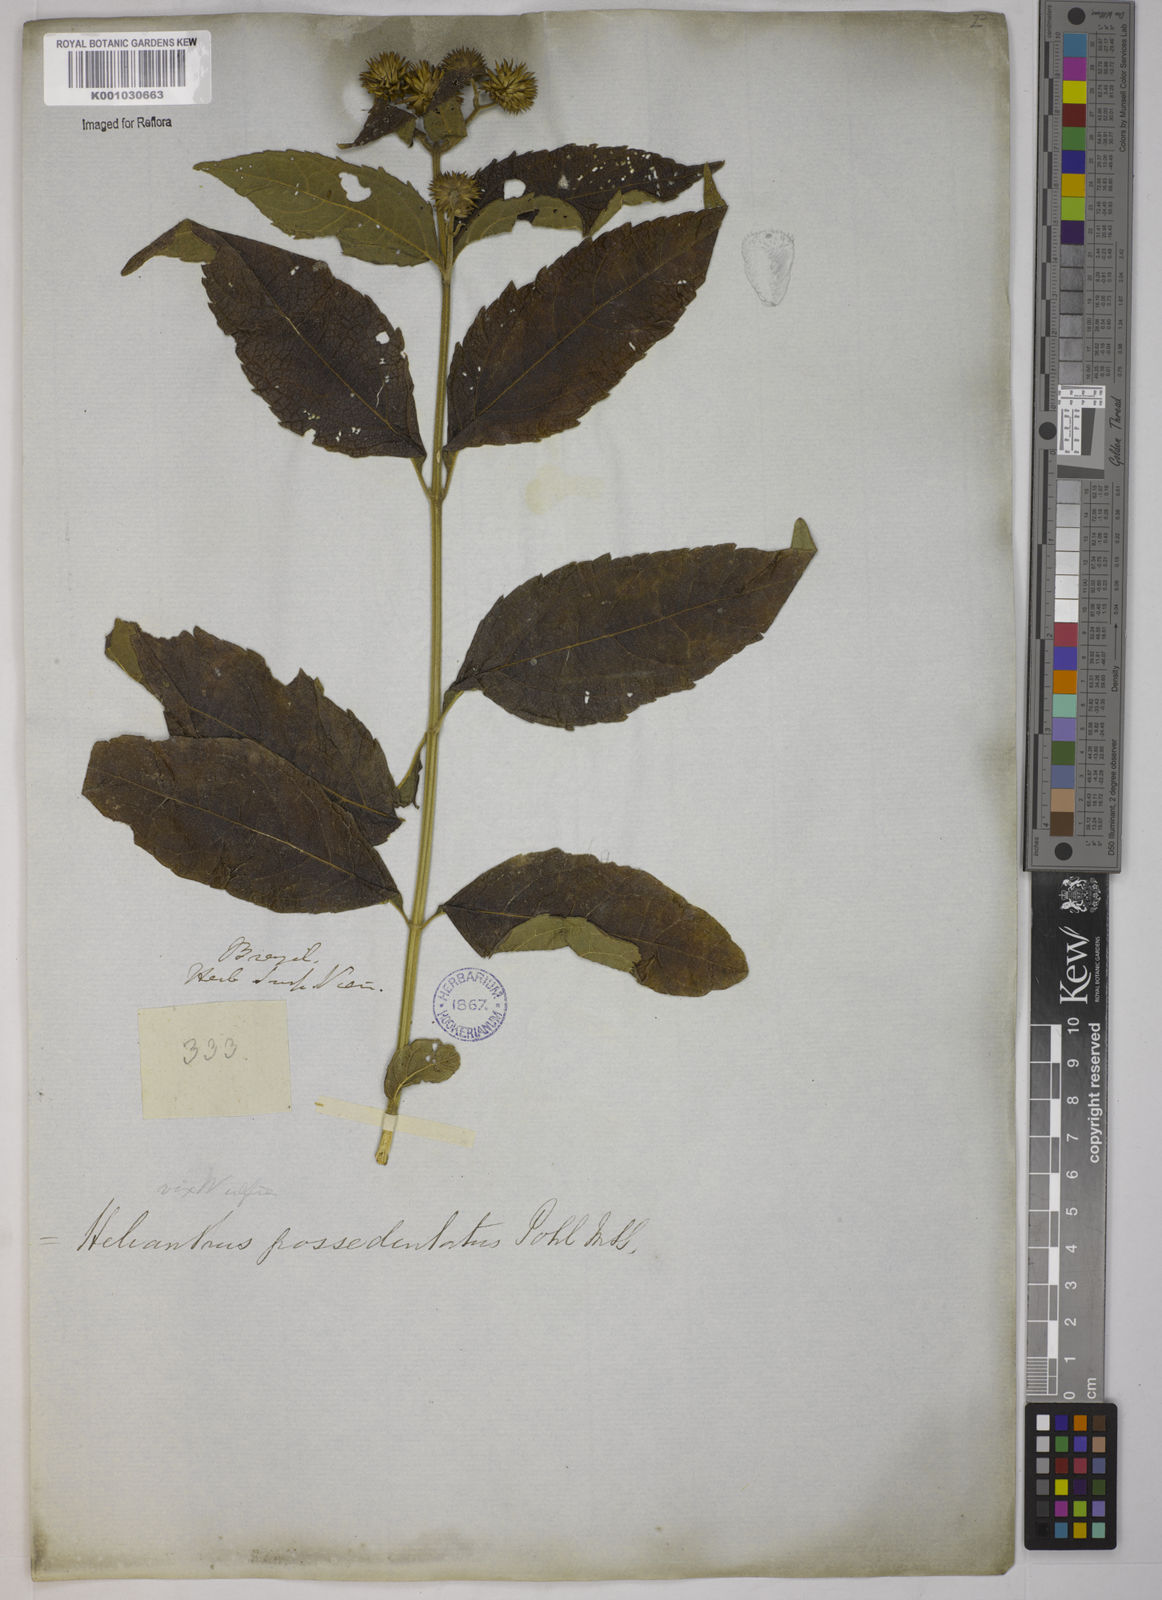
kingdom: Plantae
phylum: Tracheophyta
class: Magnoliopsida
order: Asterales
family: Asteraceae
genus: Tilesia
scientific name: Tilesia baccata
